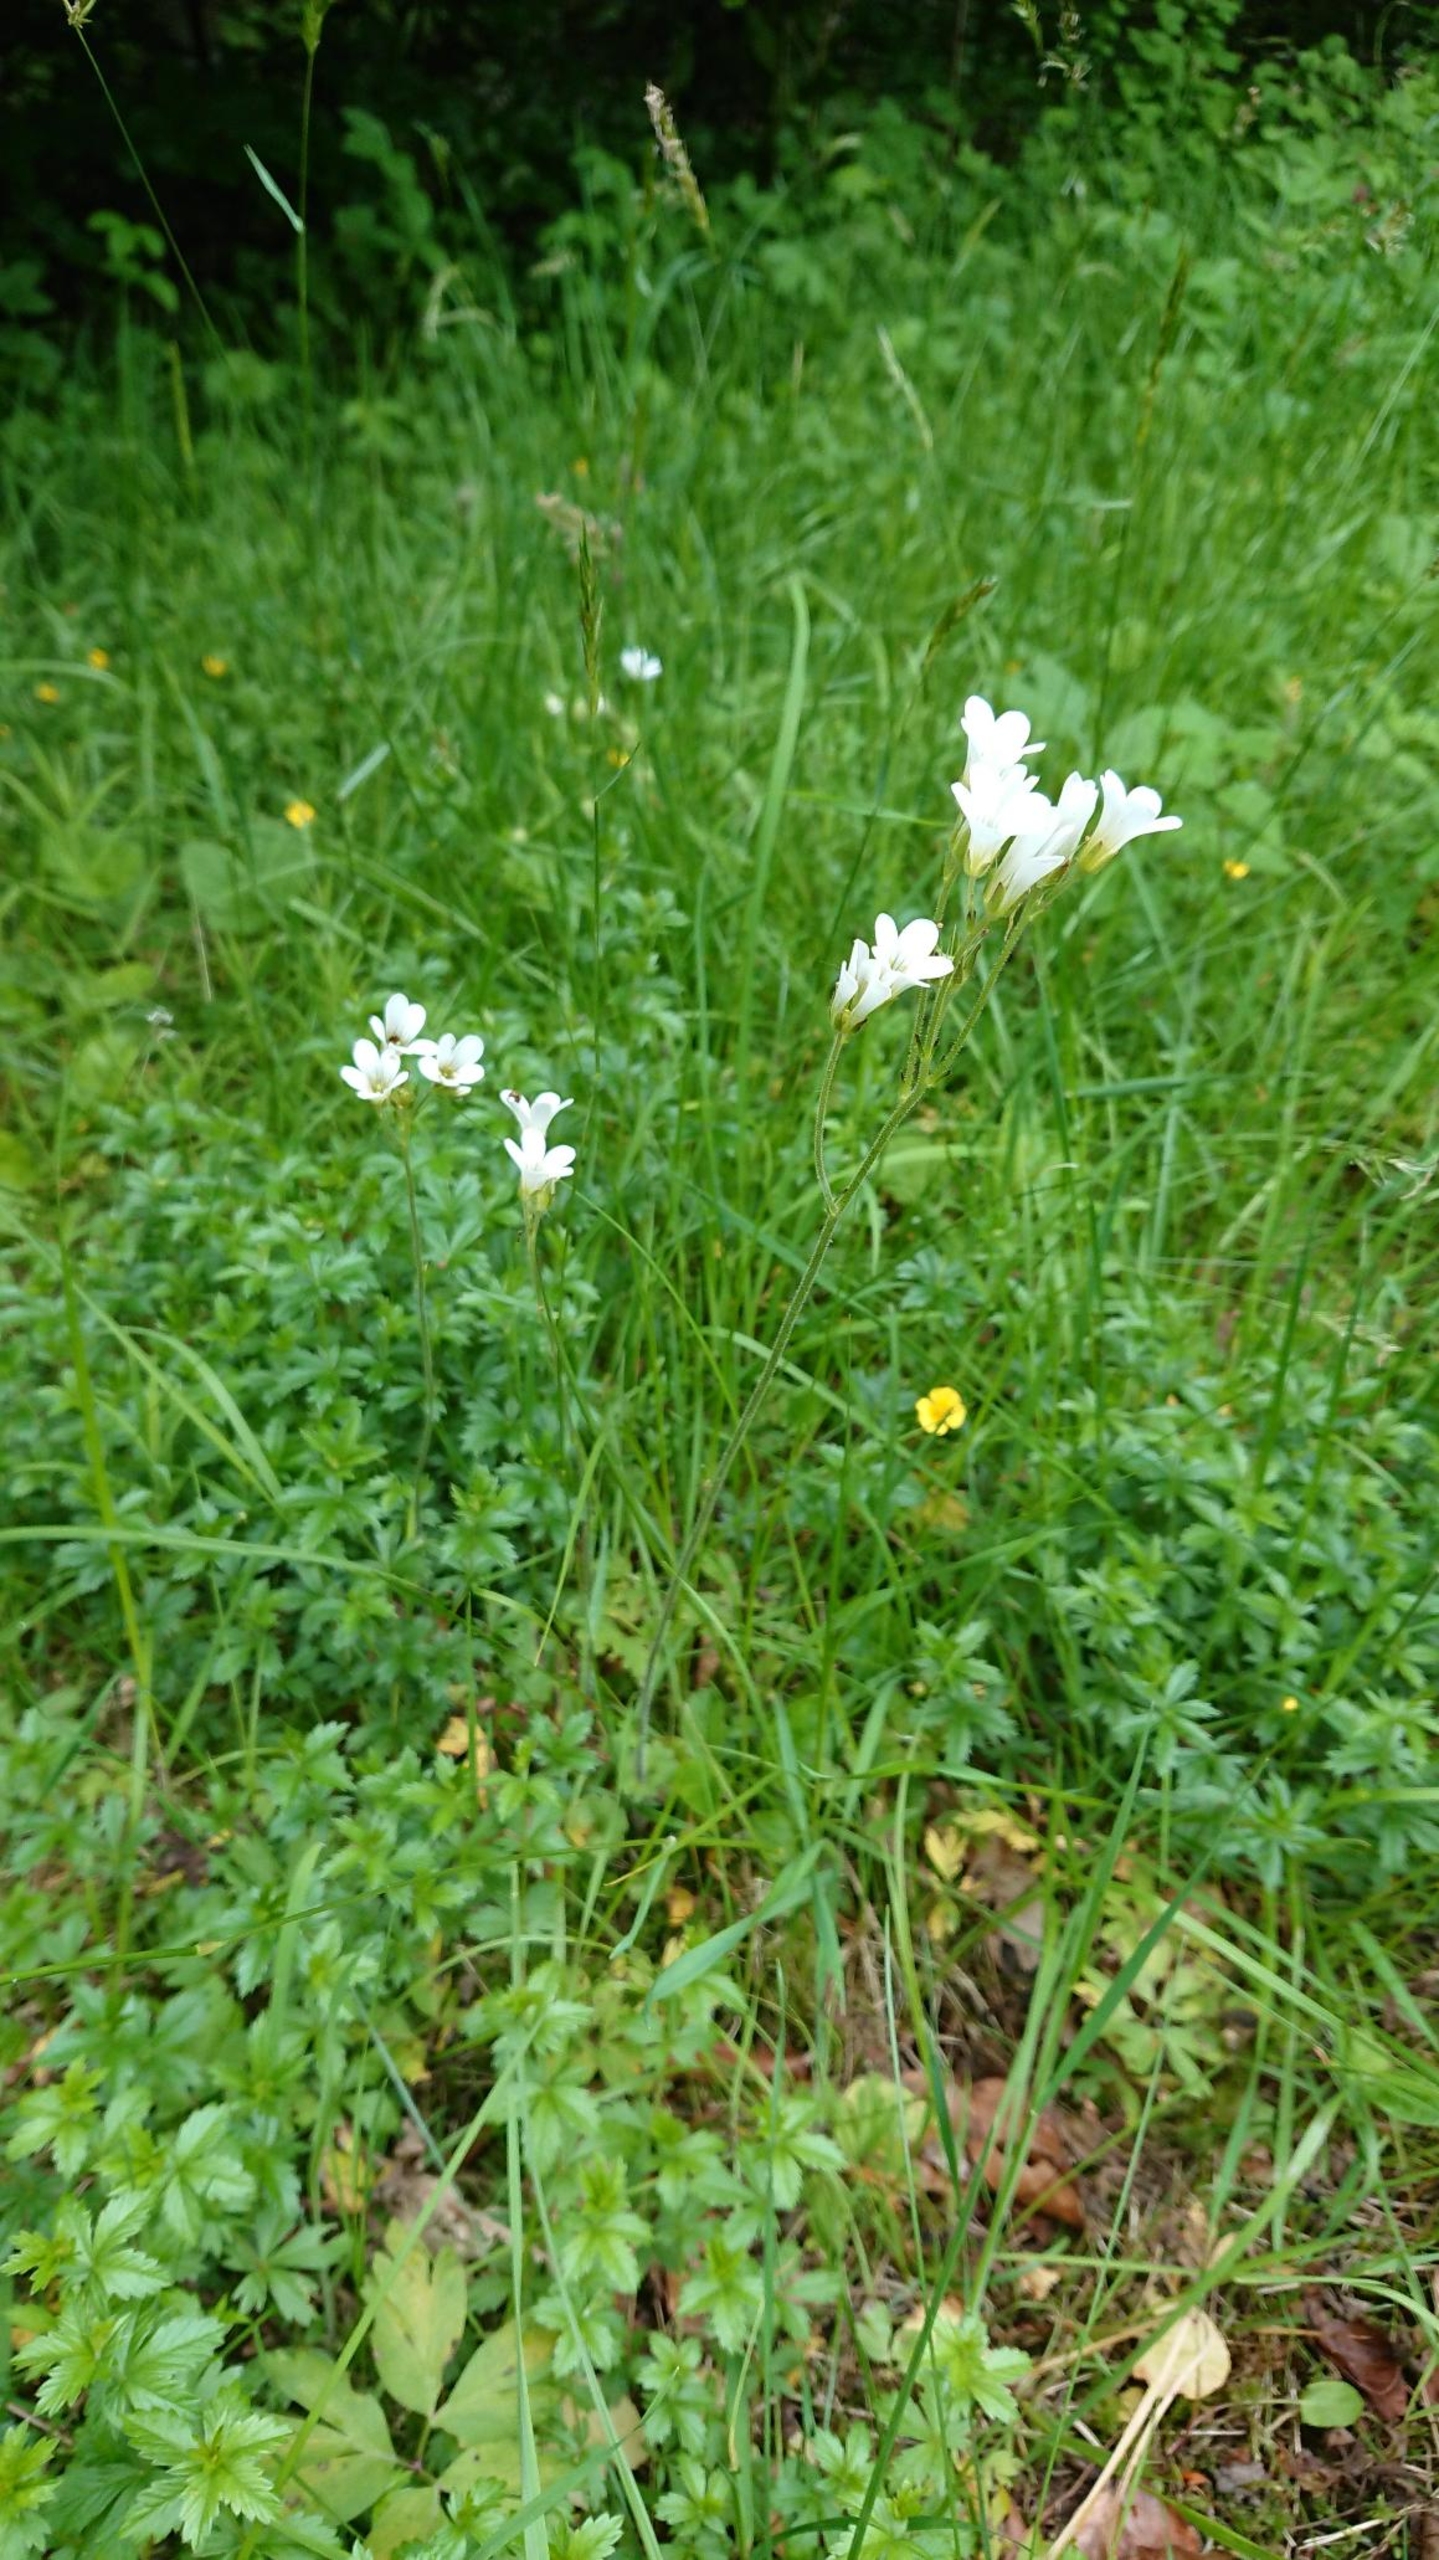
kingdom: Plantae
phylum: Tracheophyta
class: Magnoliopsida
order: Saxifragales
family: Saxifragaceae
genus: Saxifraga
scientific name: Saxifraga granulata
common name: Kornet stenbræk
